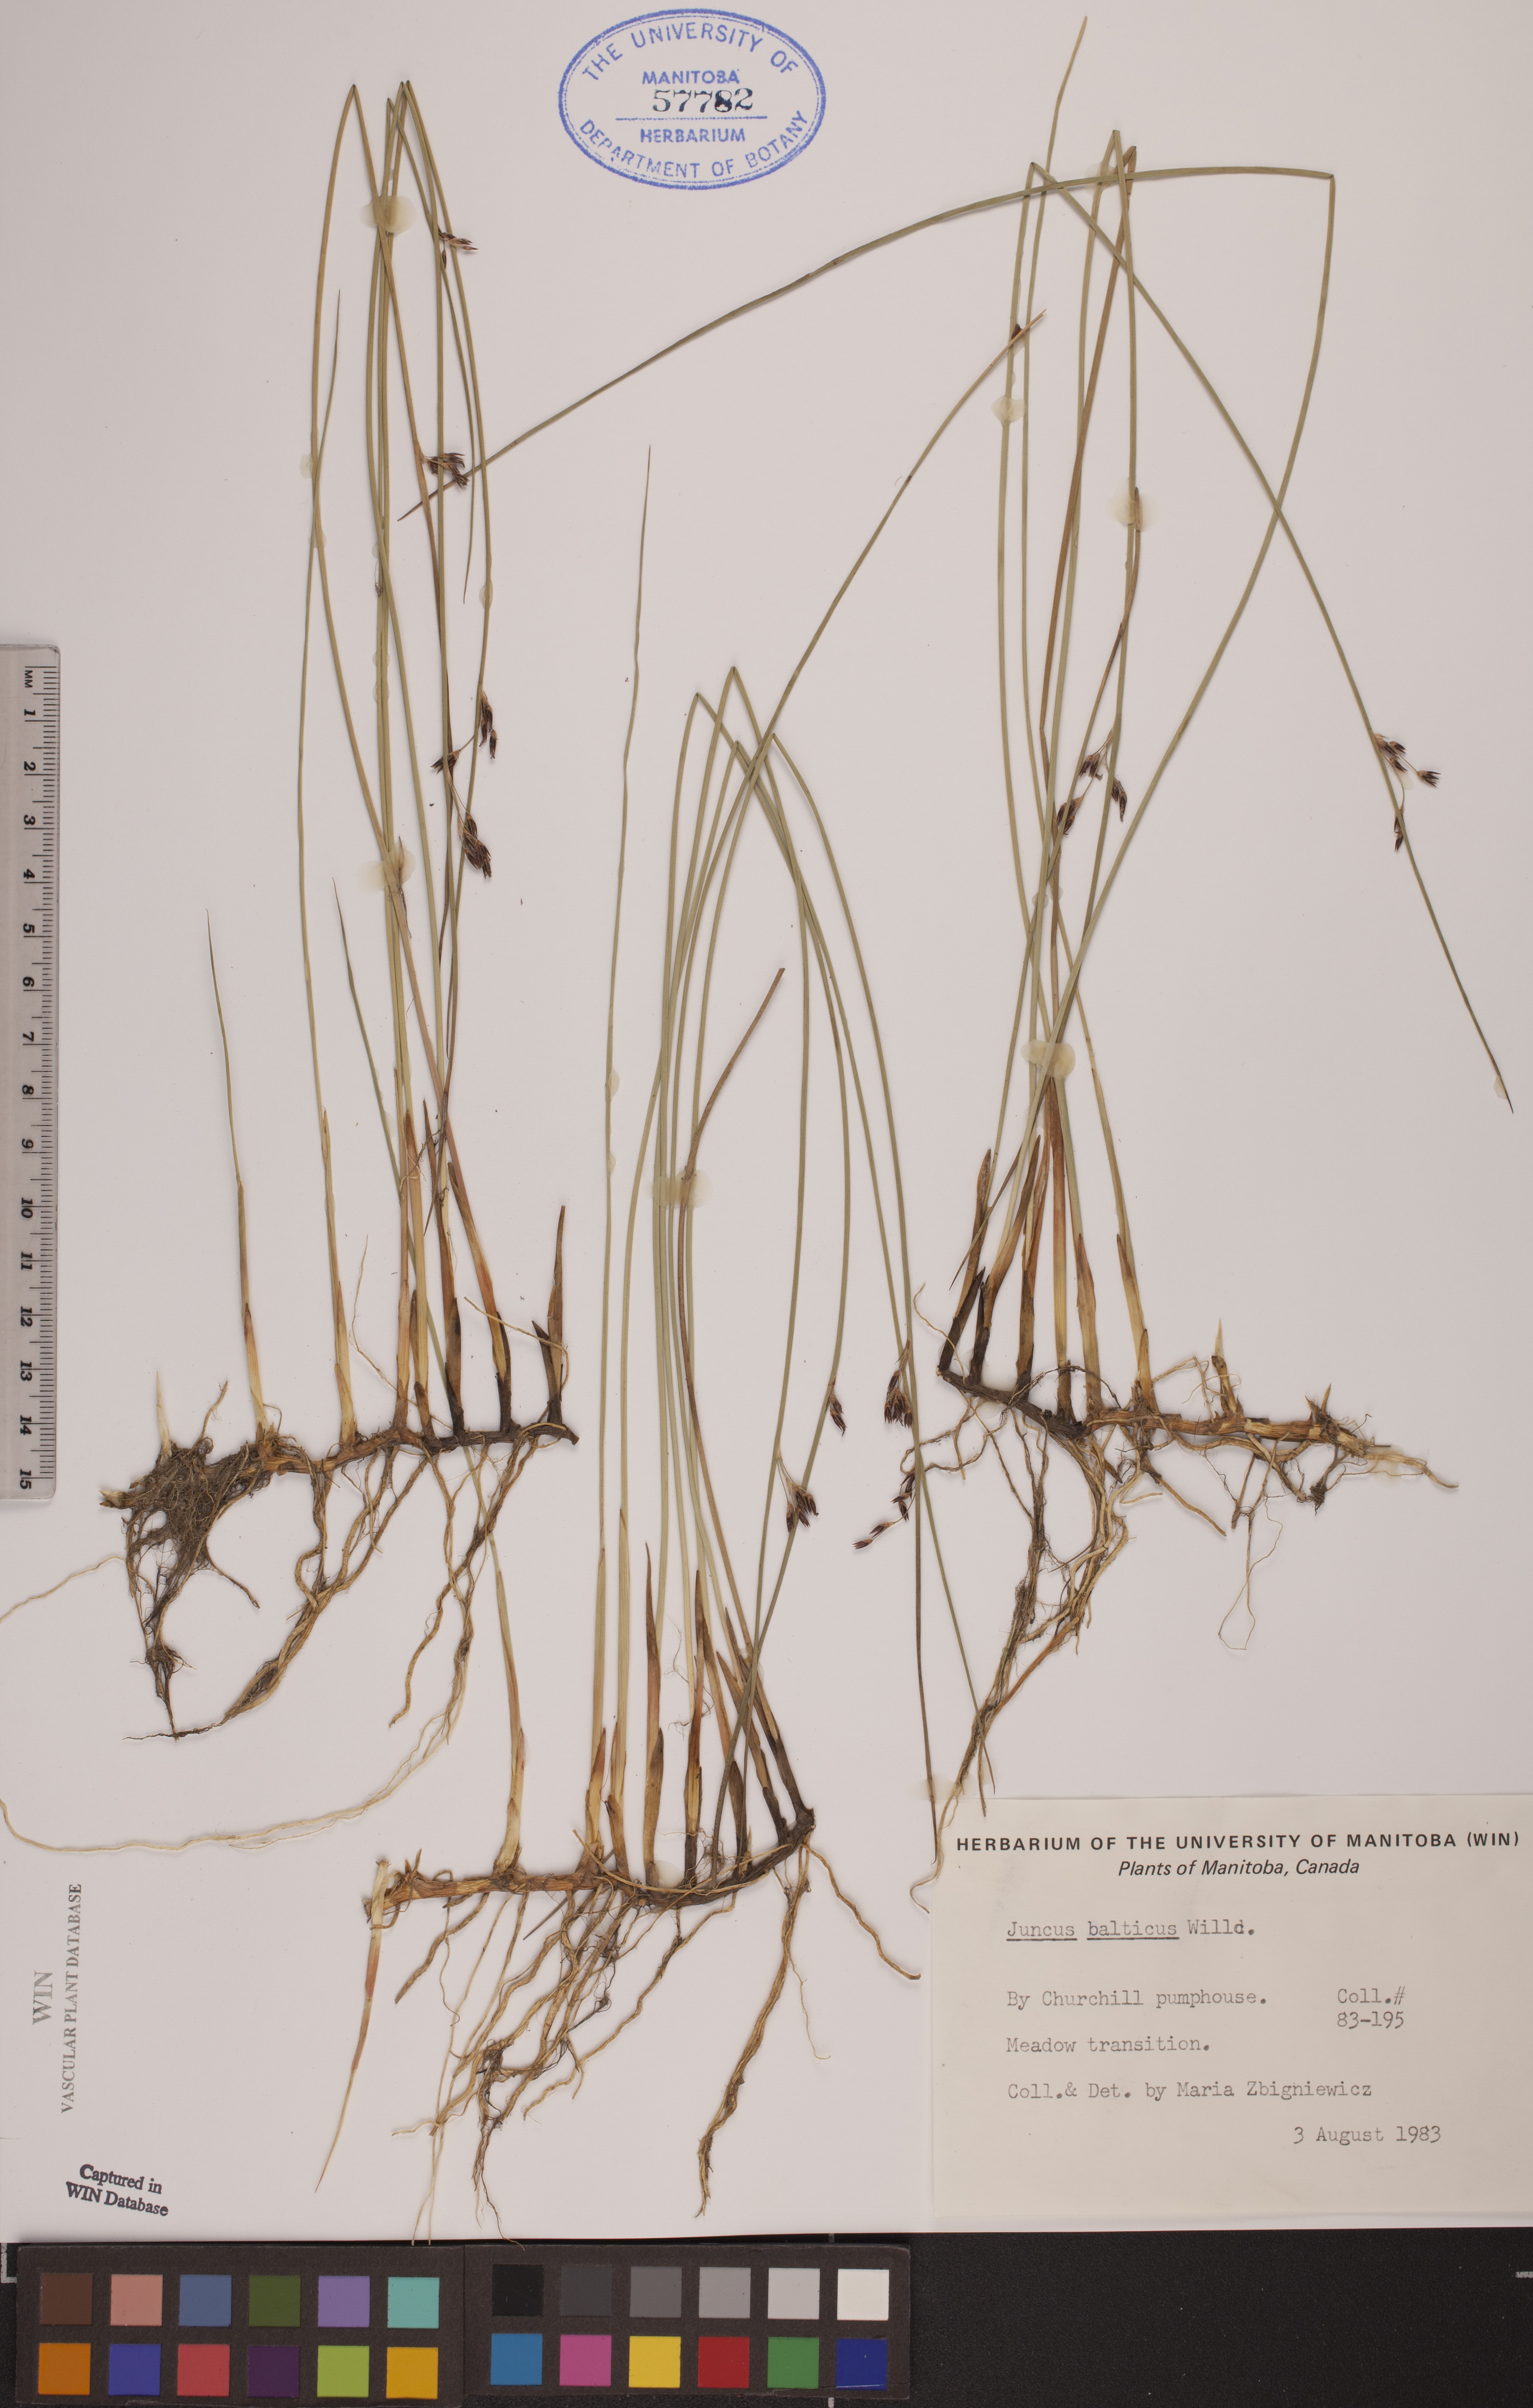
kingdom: Plantae
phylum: Tracheophyta
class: Liliopsida
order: Poales
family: Juncaceae
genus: Juncus
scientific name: Juncus balticus
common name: Baltic rush
